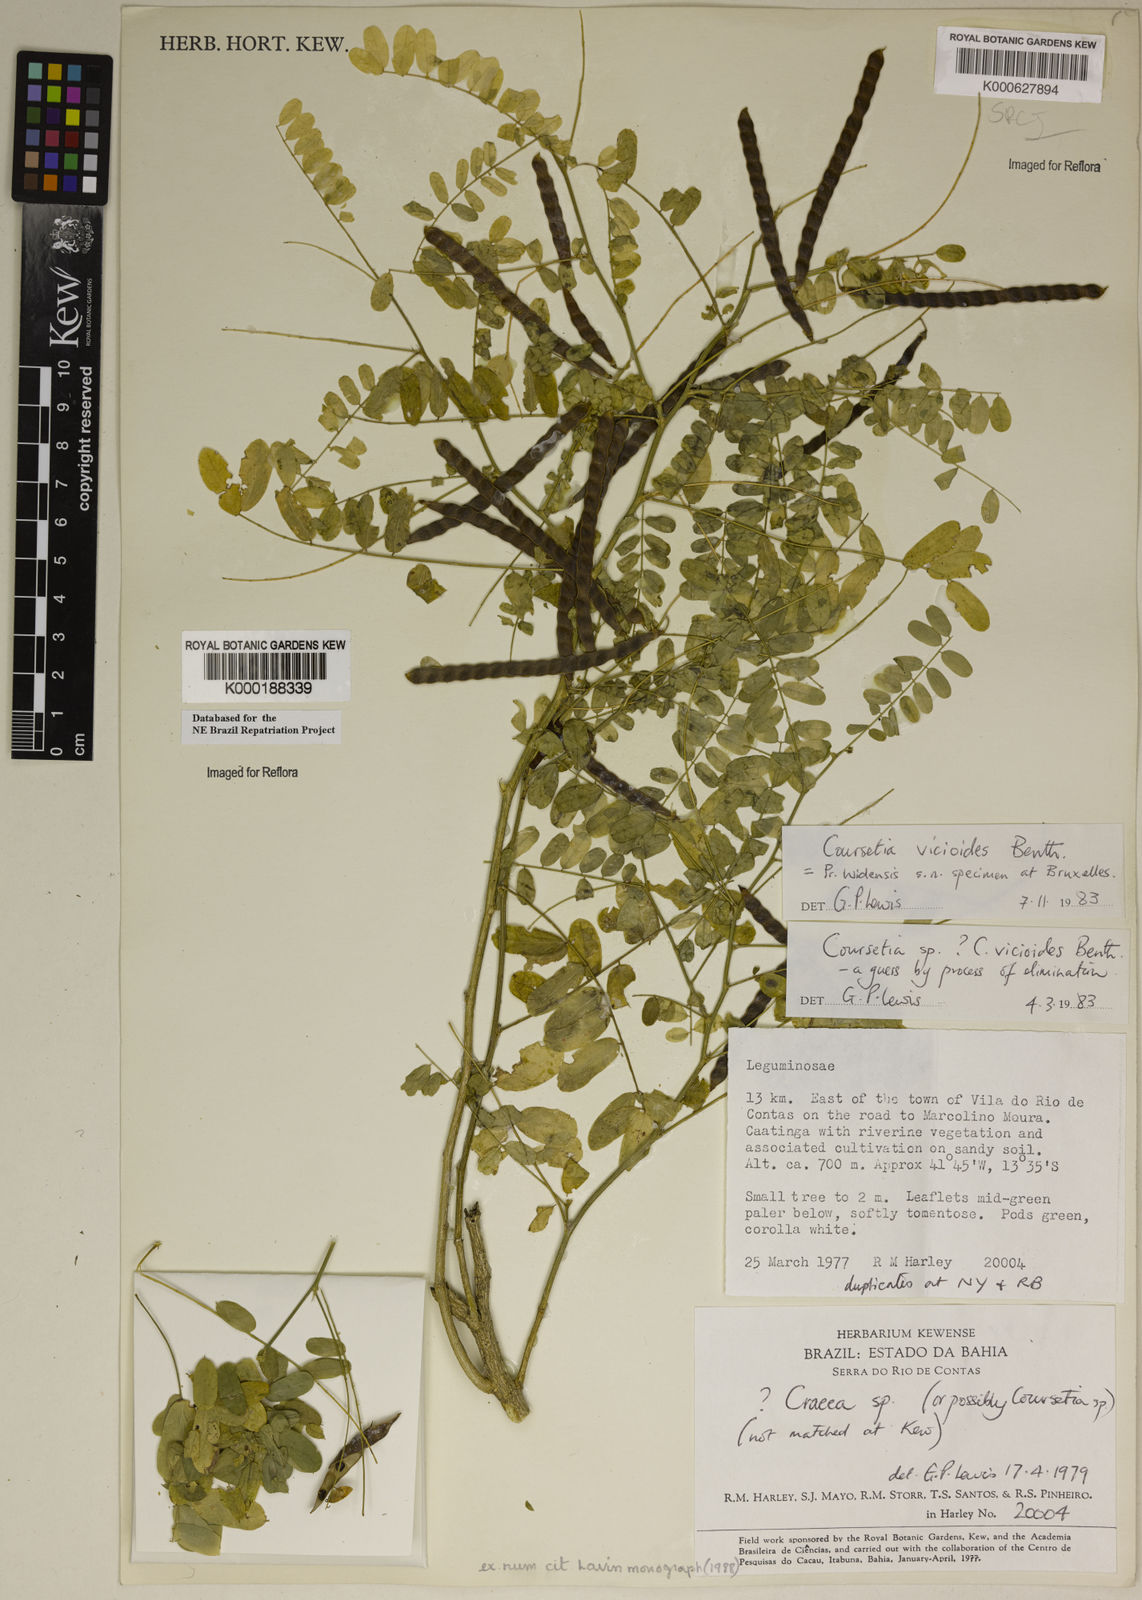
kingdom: Plantae
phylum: Tracheophyta
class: Magnoliopsida
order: Fabales
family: Fabaceae
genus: Coursetia
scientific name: Coursetia vicioides
